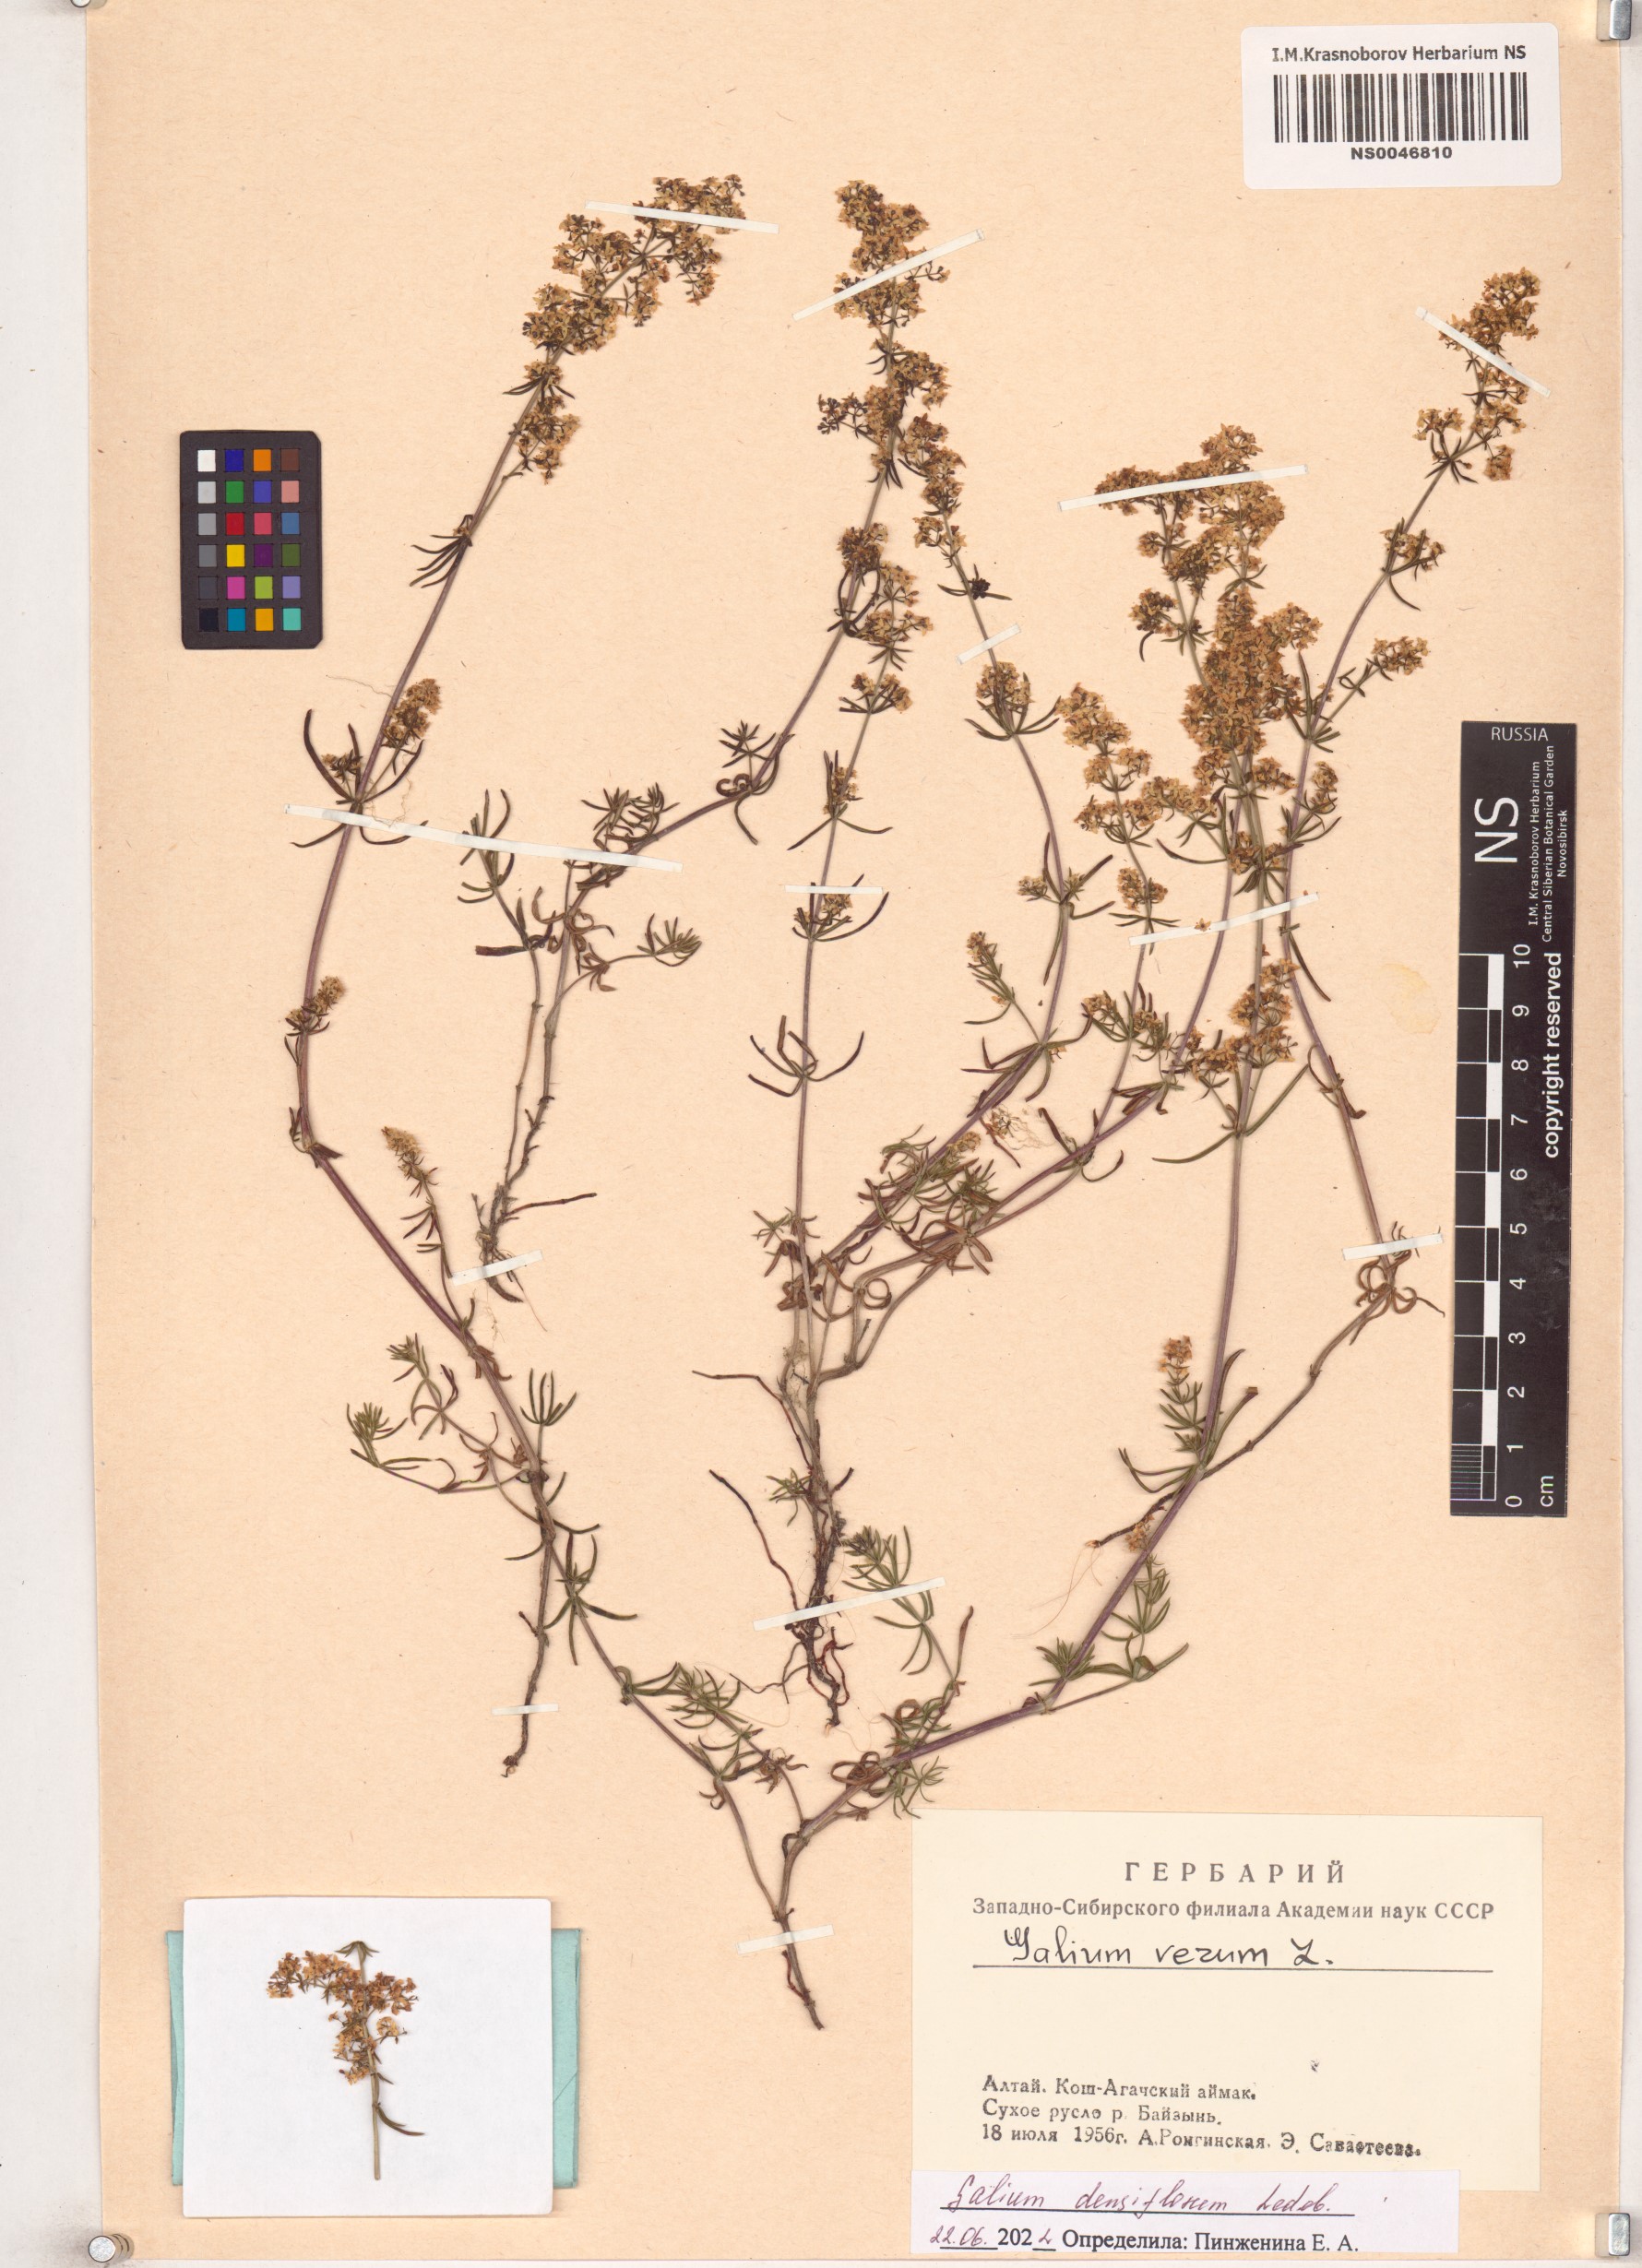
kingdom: Plantae
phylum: Tracheophyta
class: Magnoliopsida
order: Gentianales
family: Rubiaceae
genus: Galium
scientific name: Galium densiflorum
